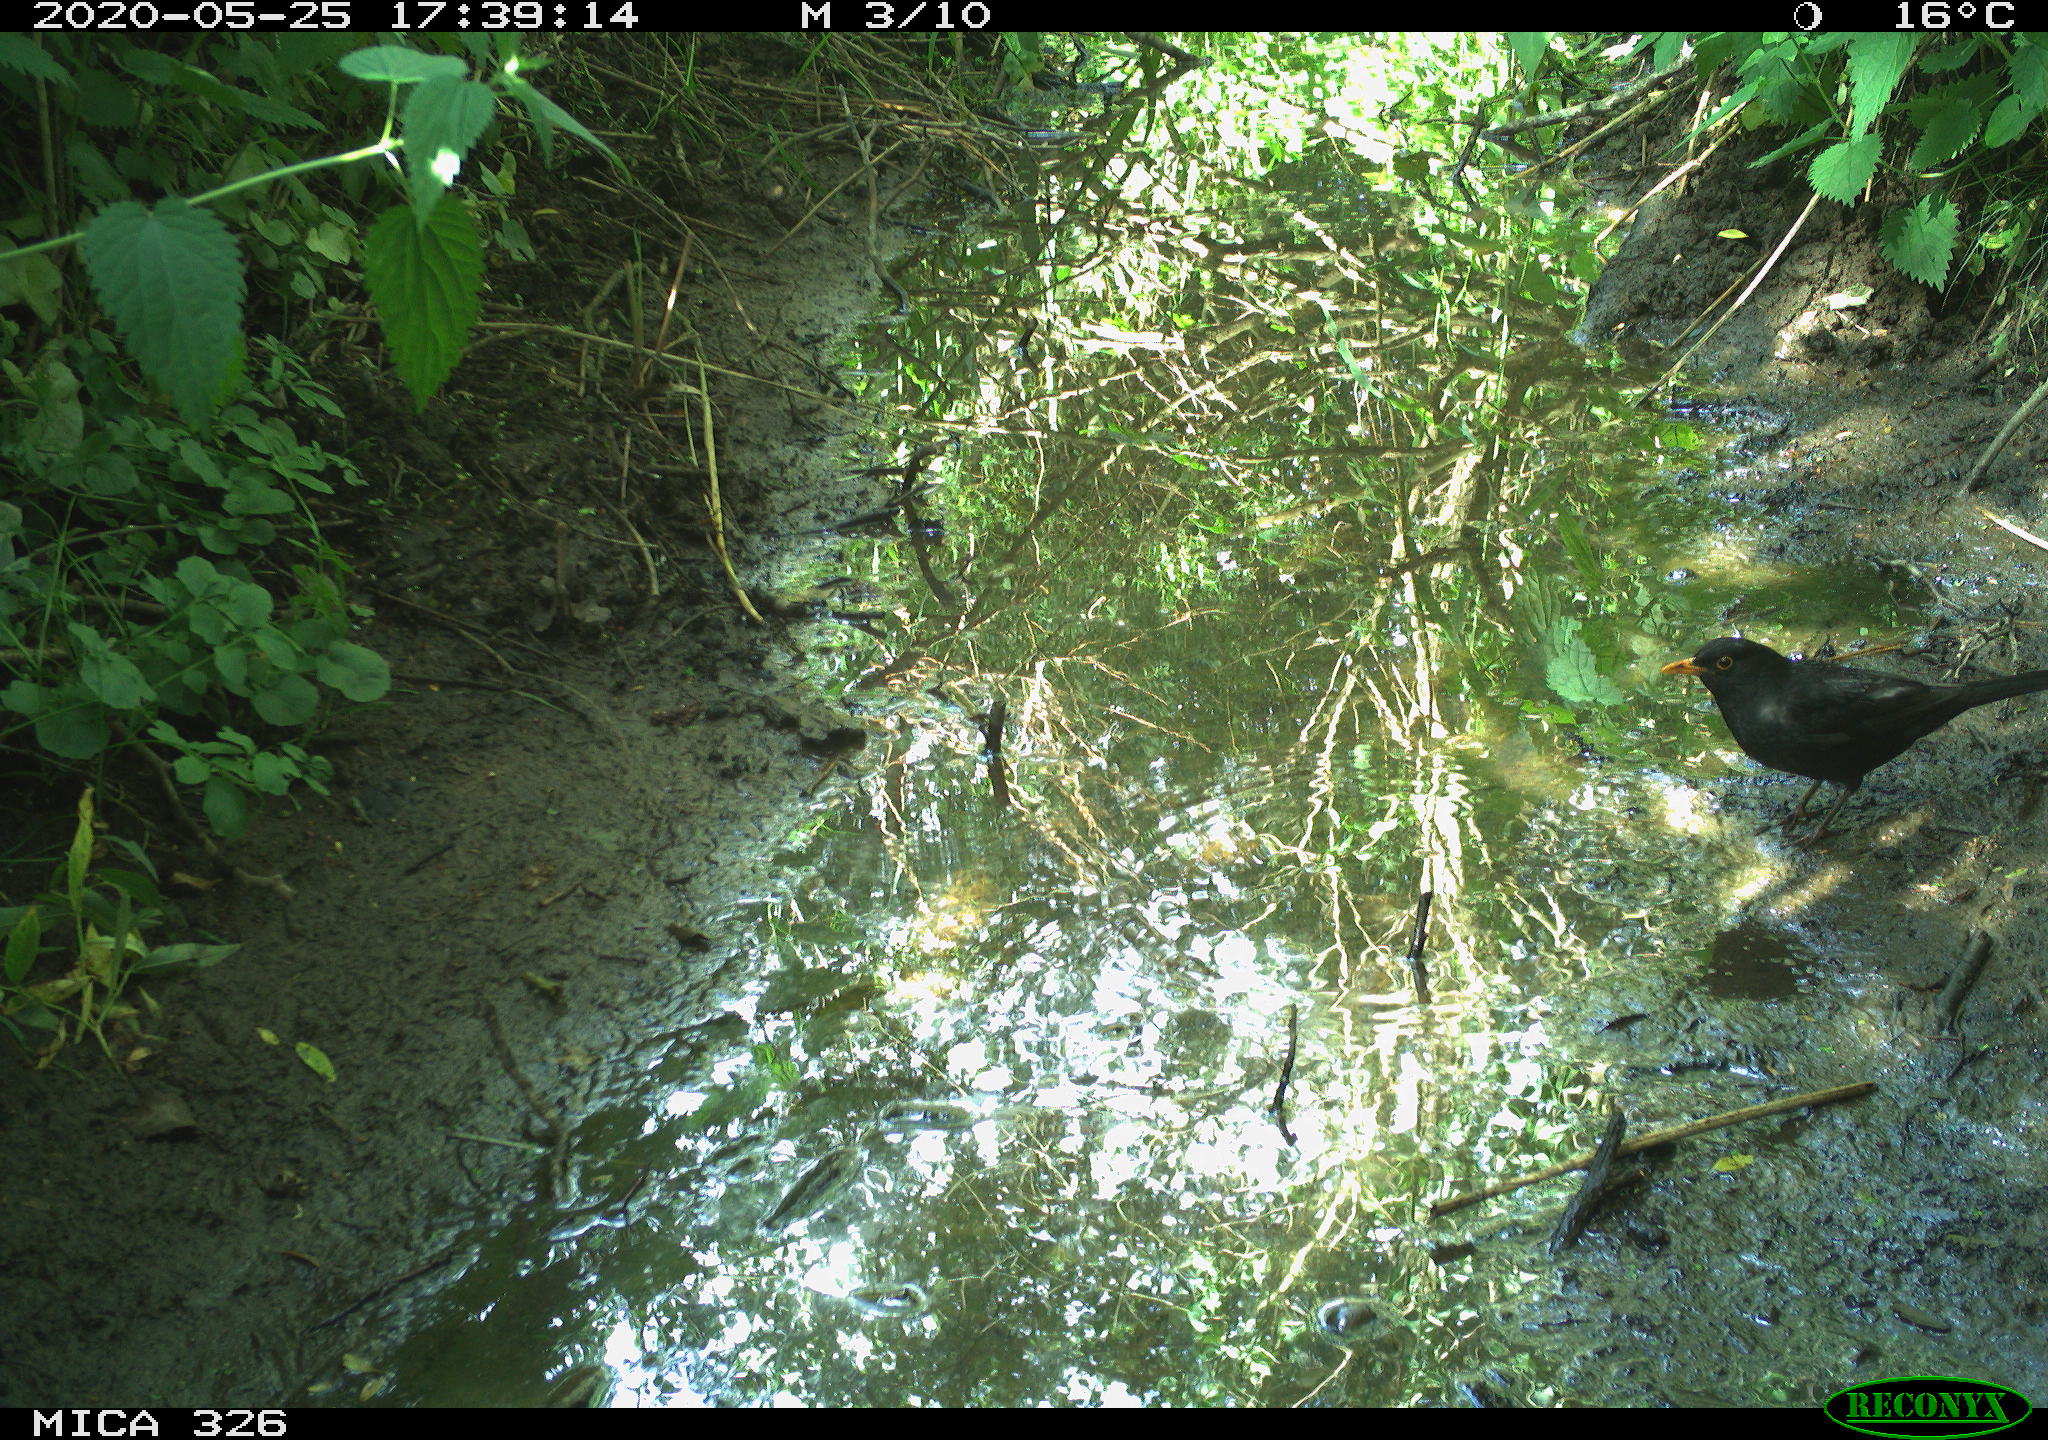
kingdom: Animalia
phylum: Chordata
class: Aves
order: Passeriformes
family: Turdidae
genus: Turdus
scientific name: Turdus merula
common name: Common blackbird
